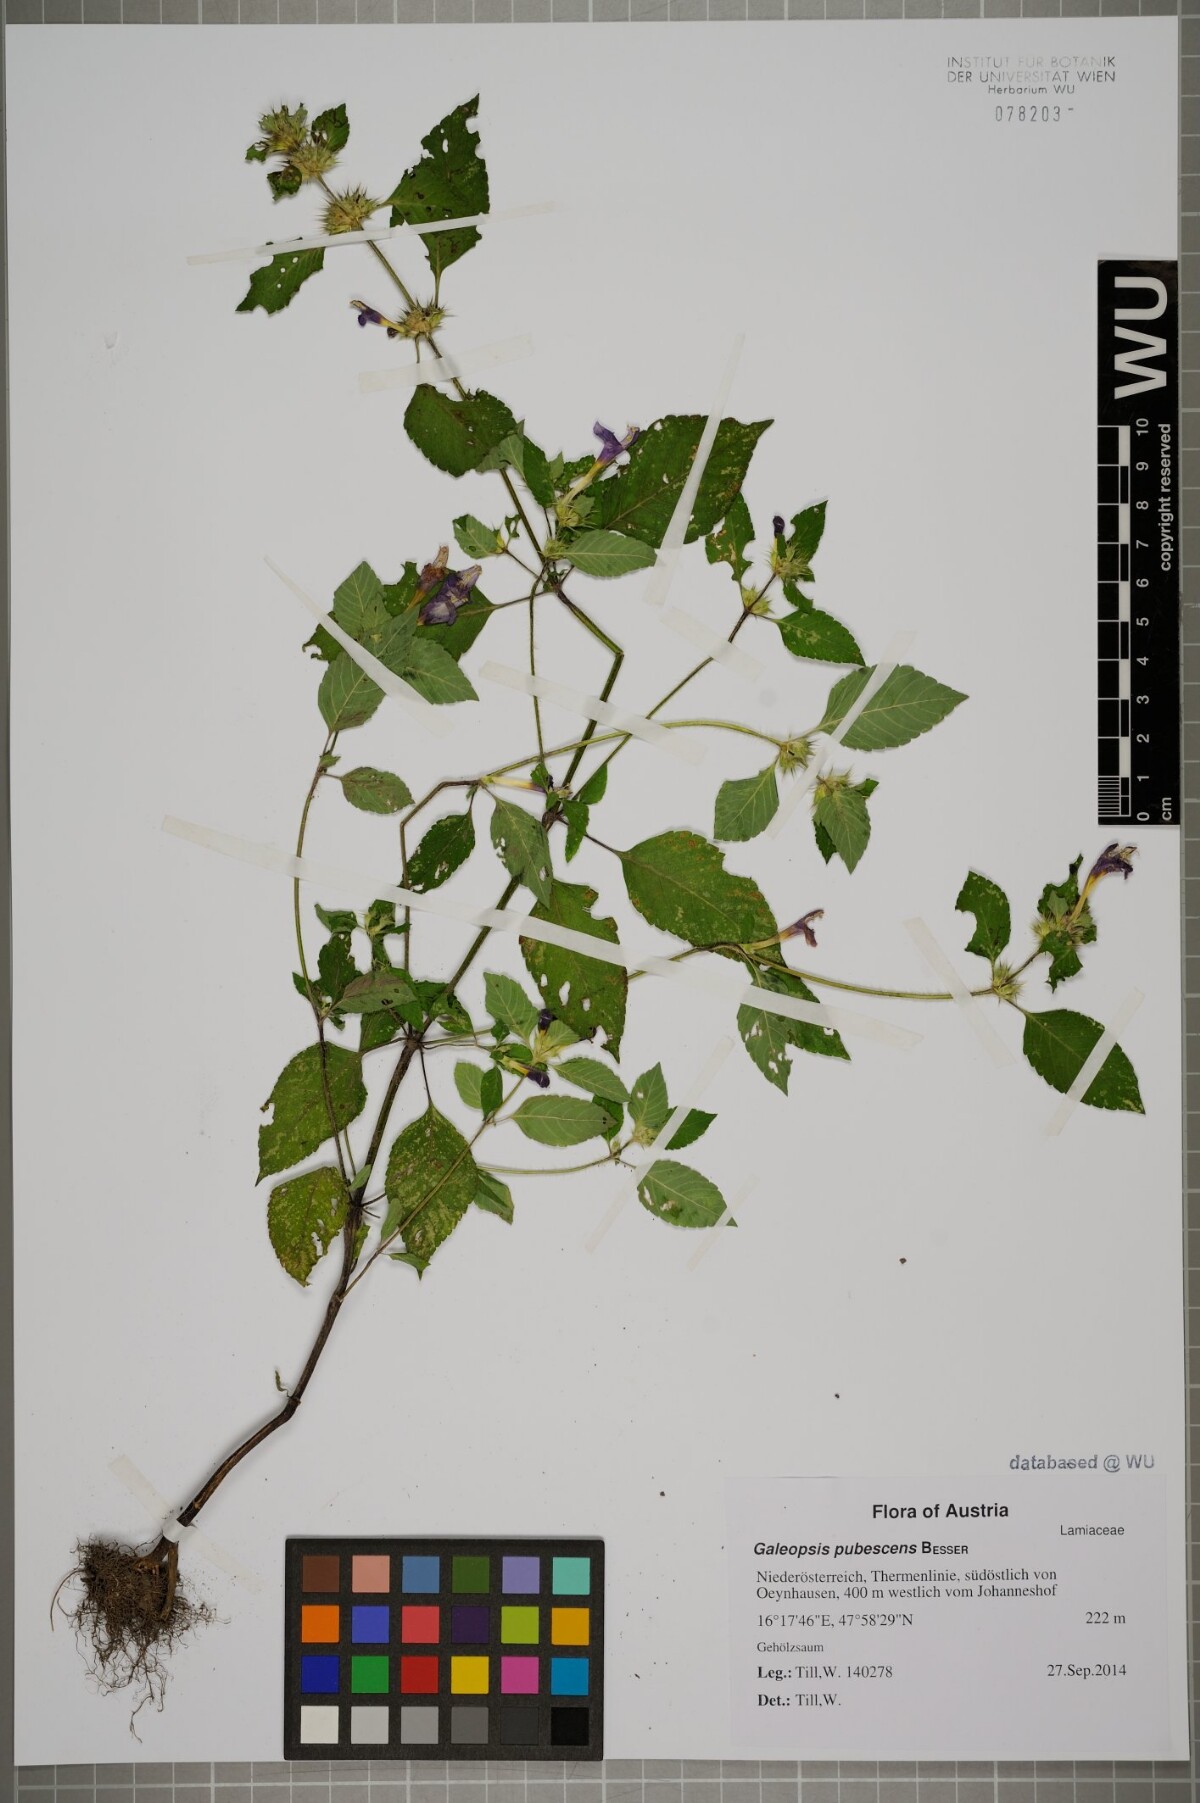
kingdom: Plantae
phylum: Tracheophyta
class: Magnoliopsida
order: Lamiales
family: Lamiaceae
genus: Galeopsis
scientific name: Galeopsis pubescens
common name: Downy hemp-nettle
